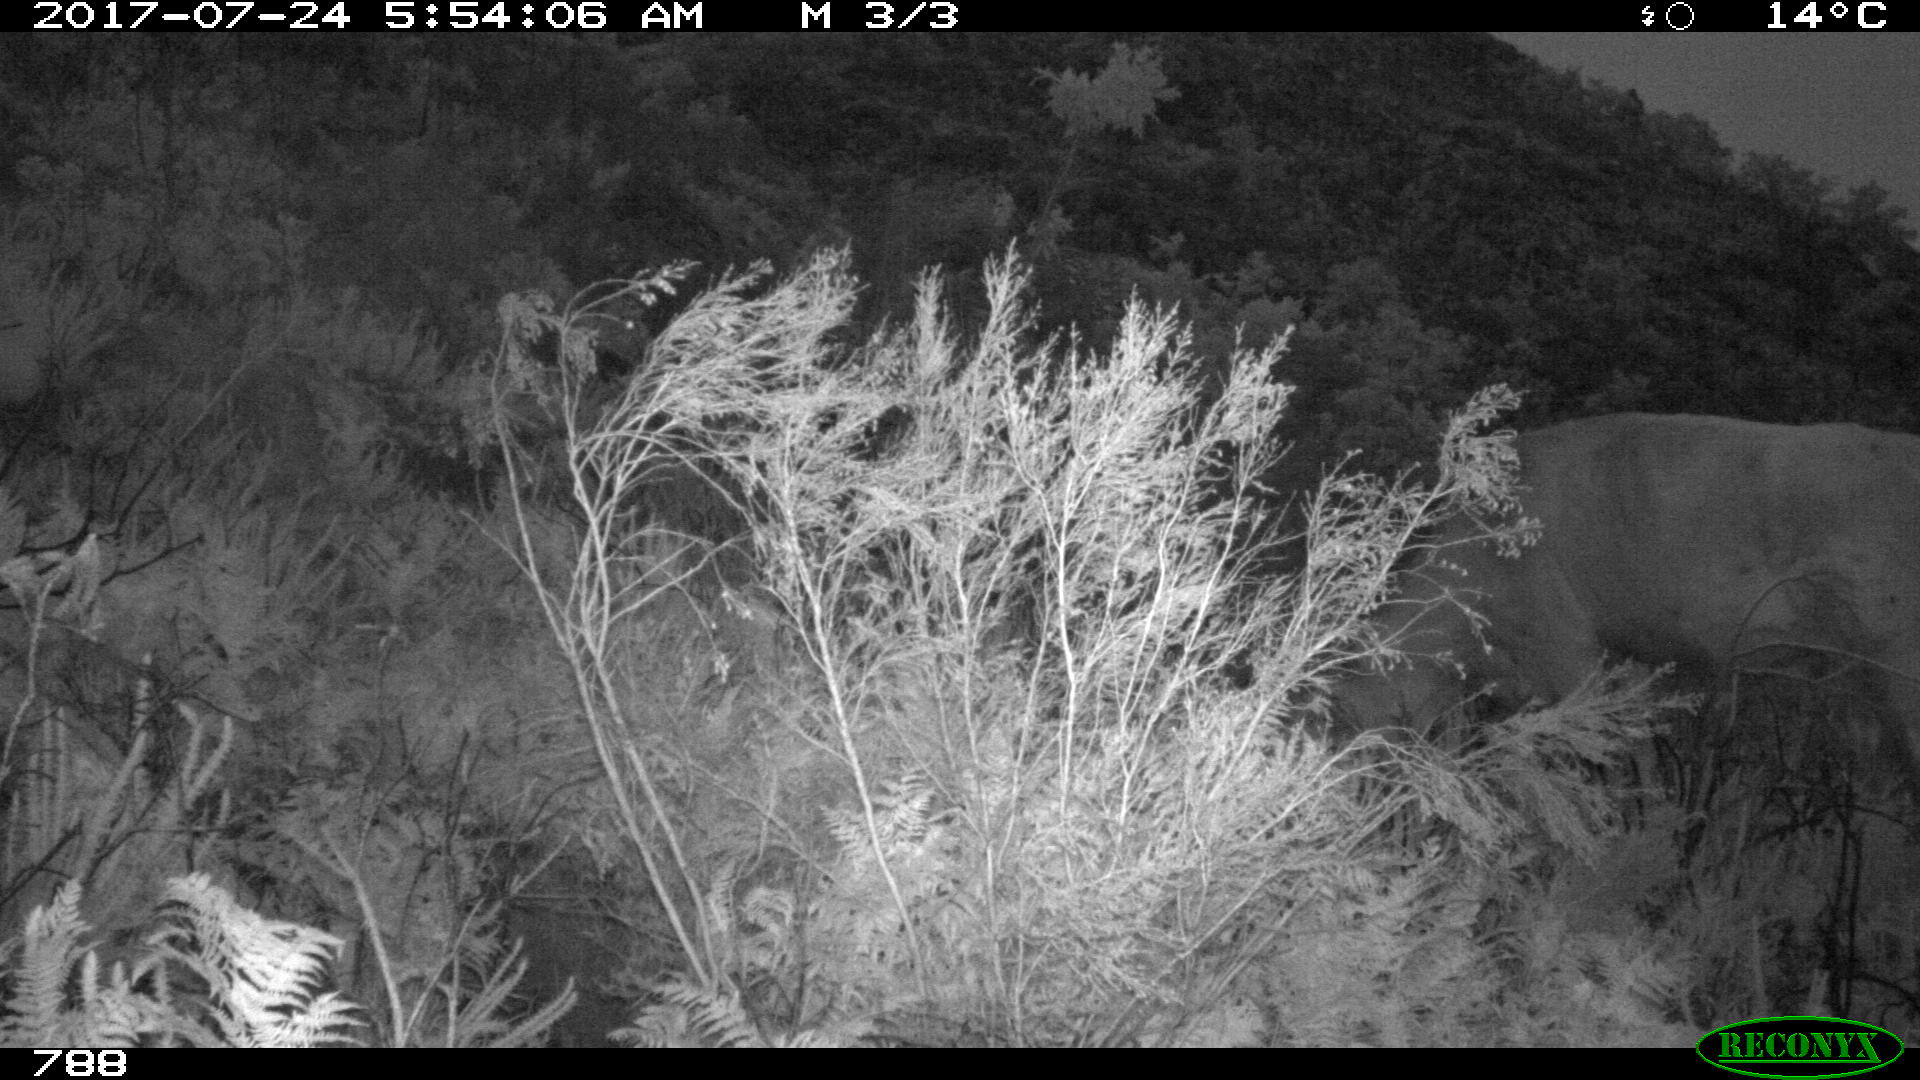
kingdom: Animalia
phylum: Chordata
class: Mammalia
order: Artiodactyla
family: Bovidae
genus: Bos
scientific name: Bos taurus
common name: Domesticated cattle
